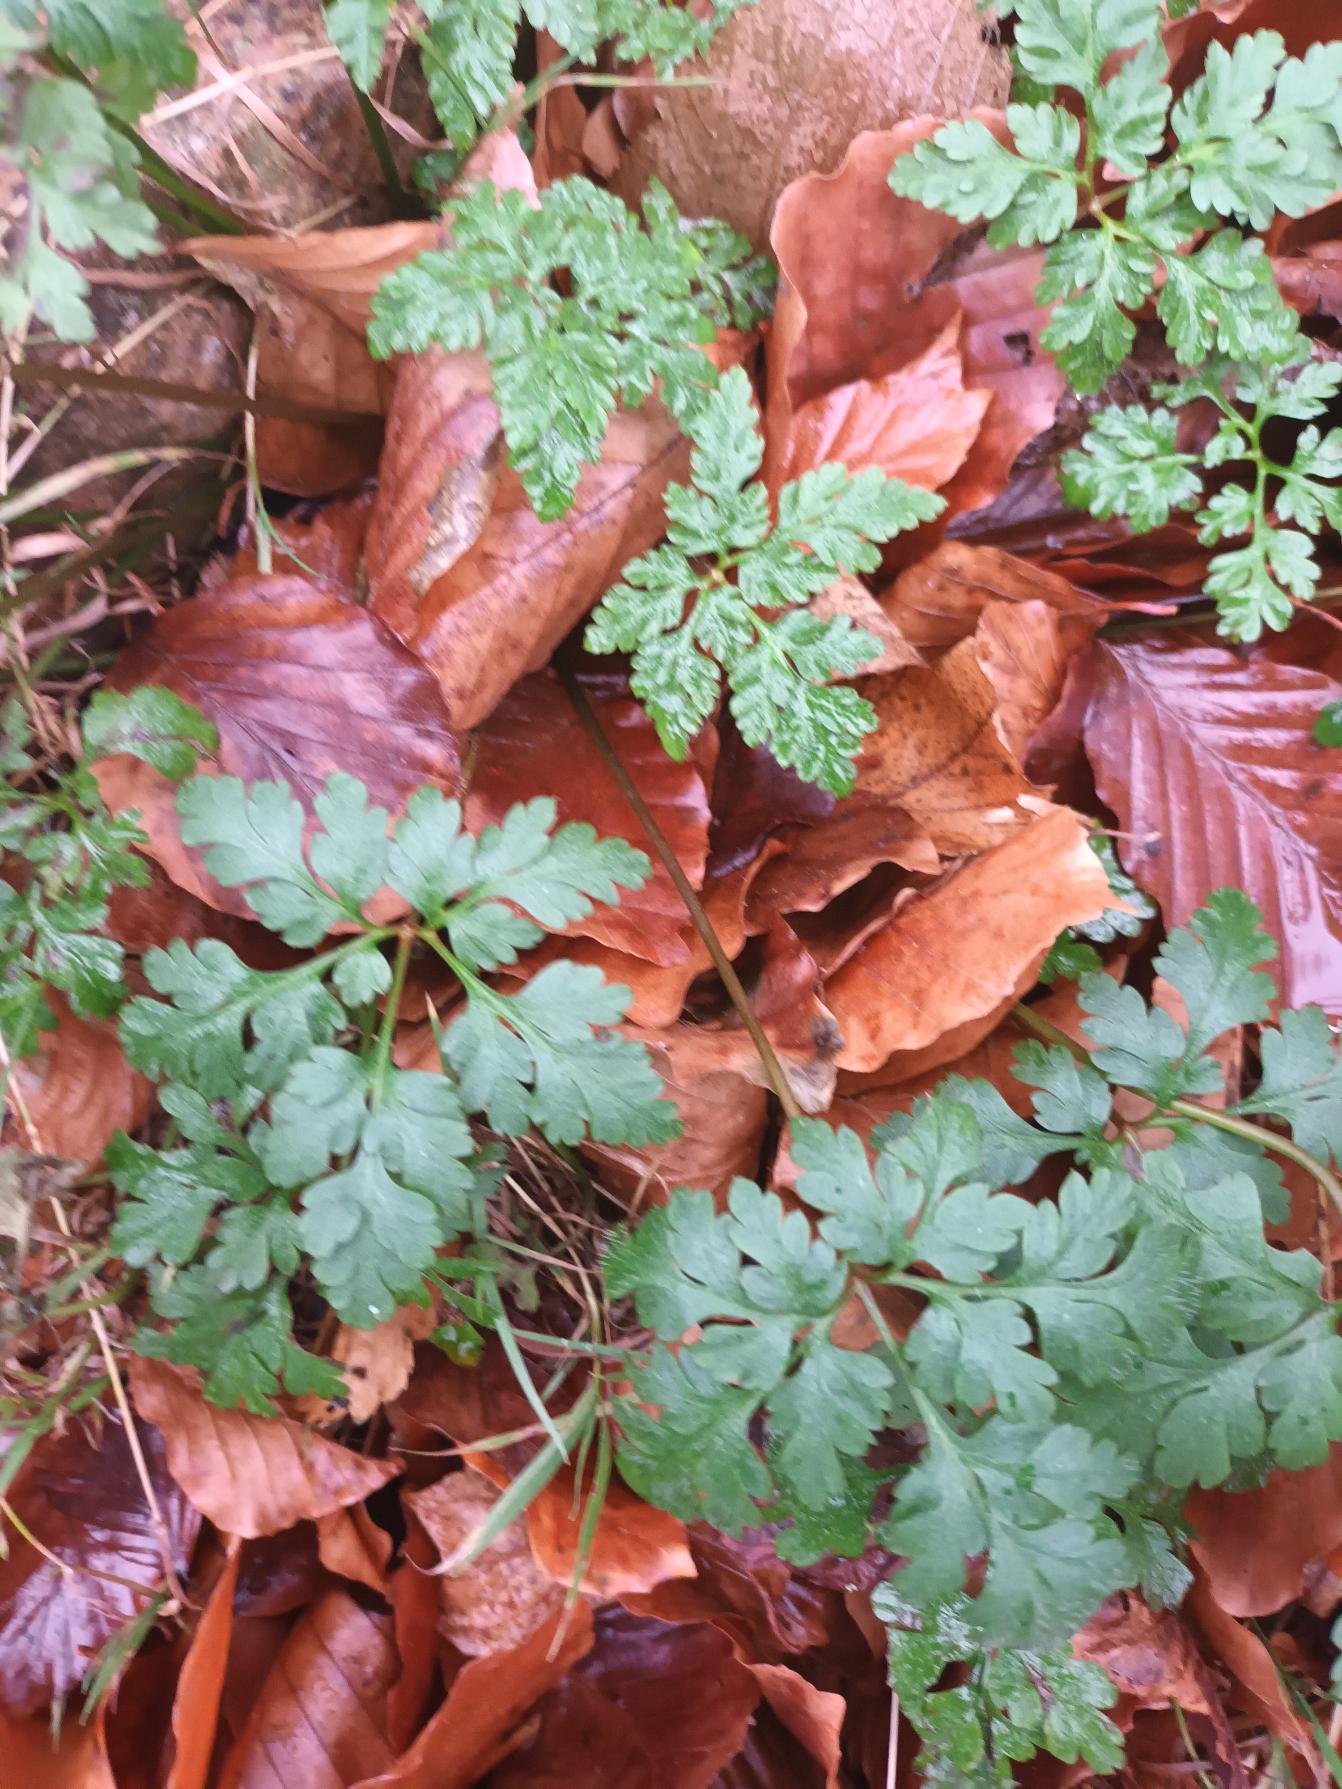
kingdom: Plantae
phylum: Tracheophyta
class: Magnoliopsida
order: Geraniales
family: Geraniaceae
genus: Geranium
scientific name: Geranium robertianum
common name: Stinkende storkenæb
